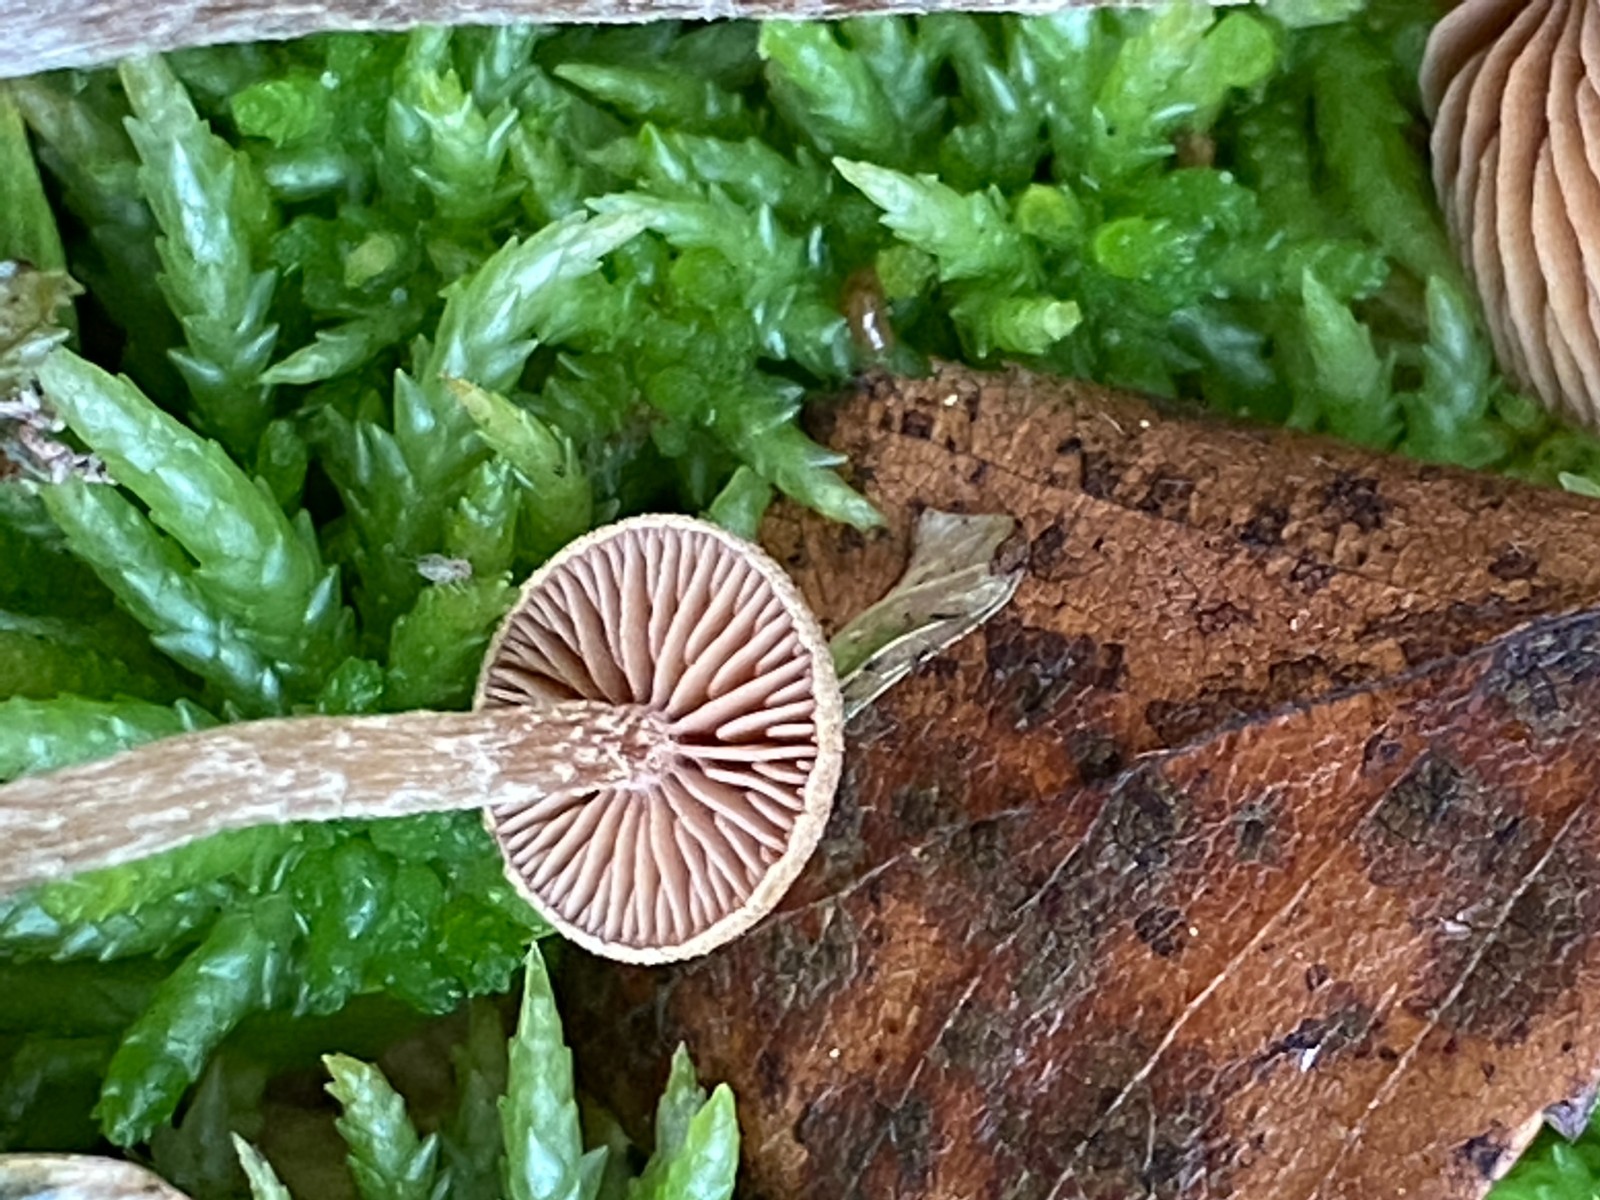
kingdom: Fungi
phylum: Basidiomycota
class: Agaricomycetes
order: Agaricales
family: Hymenogastraceae
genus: Naucoria
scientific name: Naucoria subconspersa
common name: filtet knaphat
